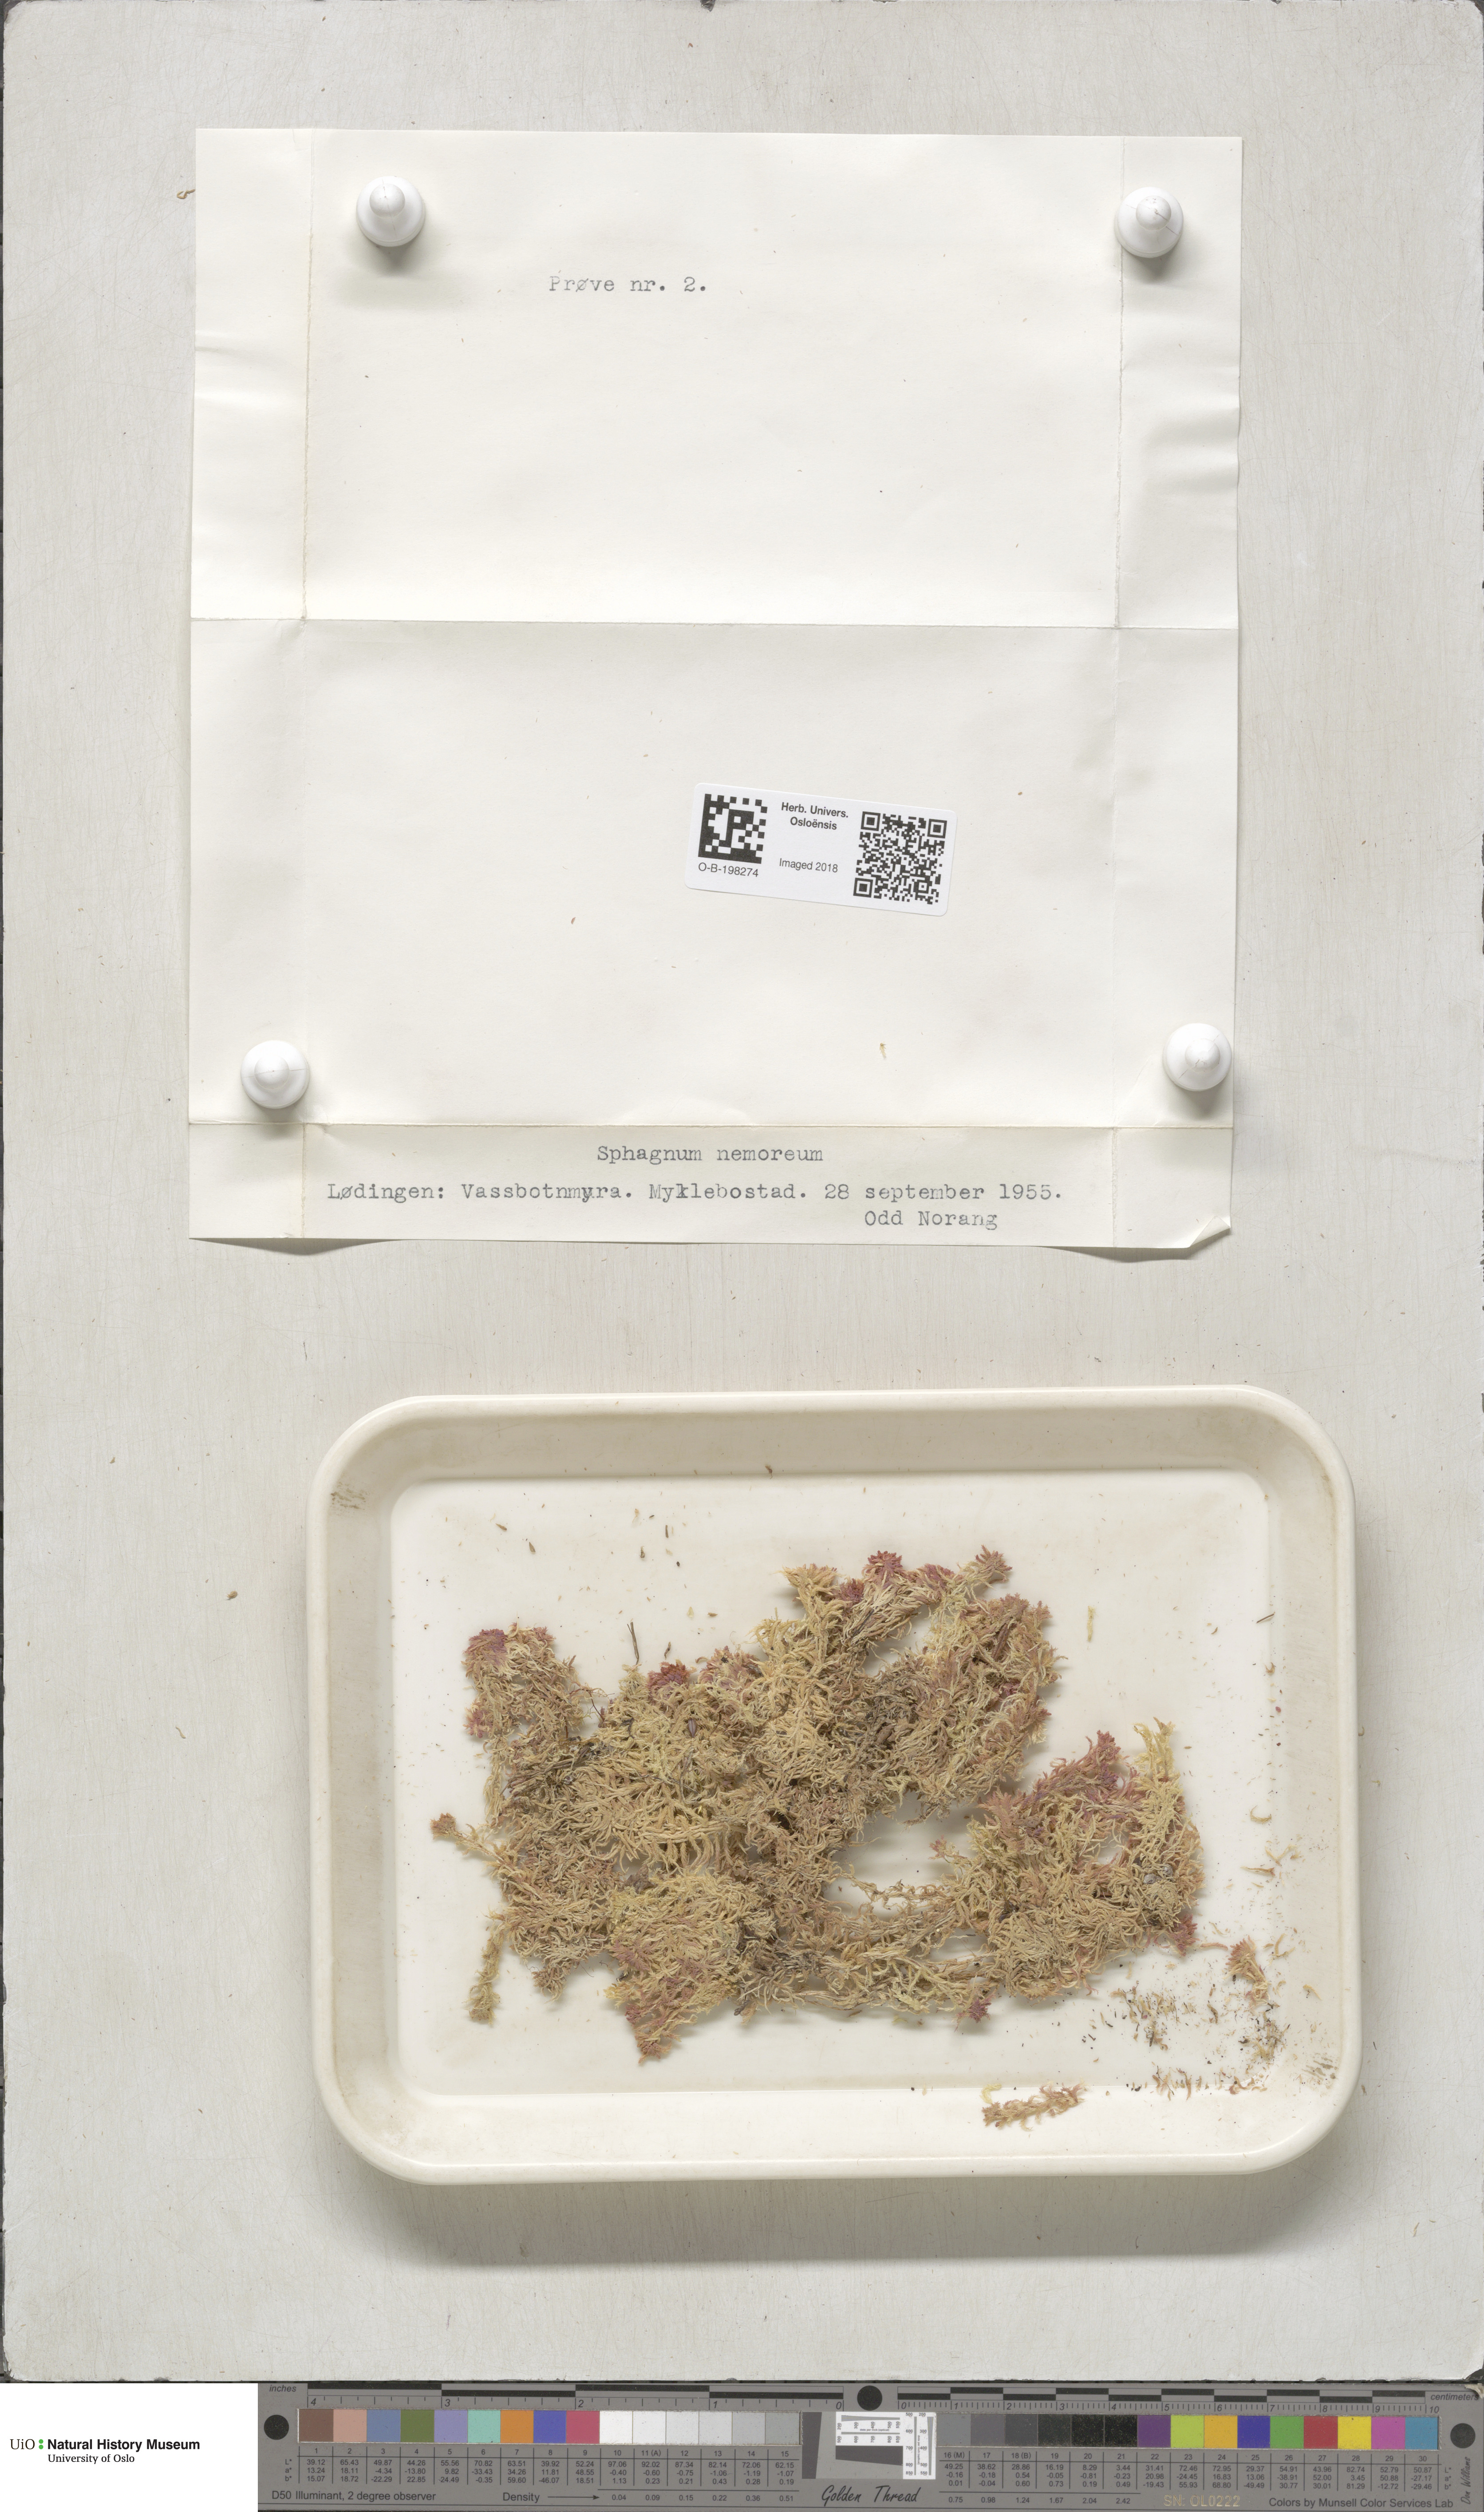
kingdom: Plantae
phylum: Bryophyta
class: Sphagnopsida
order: Sphagnales
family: Sphagnaceae
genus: Sphagnum
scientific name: Sphagnum capillifolium
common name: Small red peat moss
